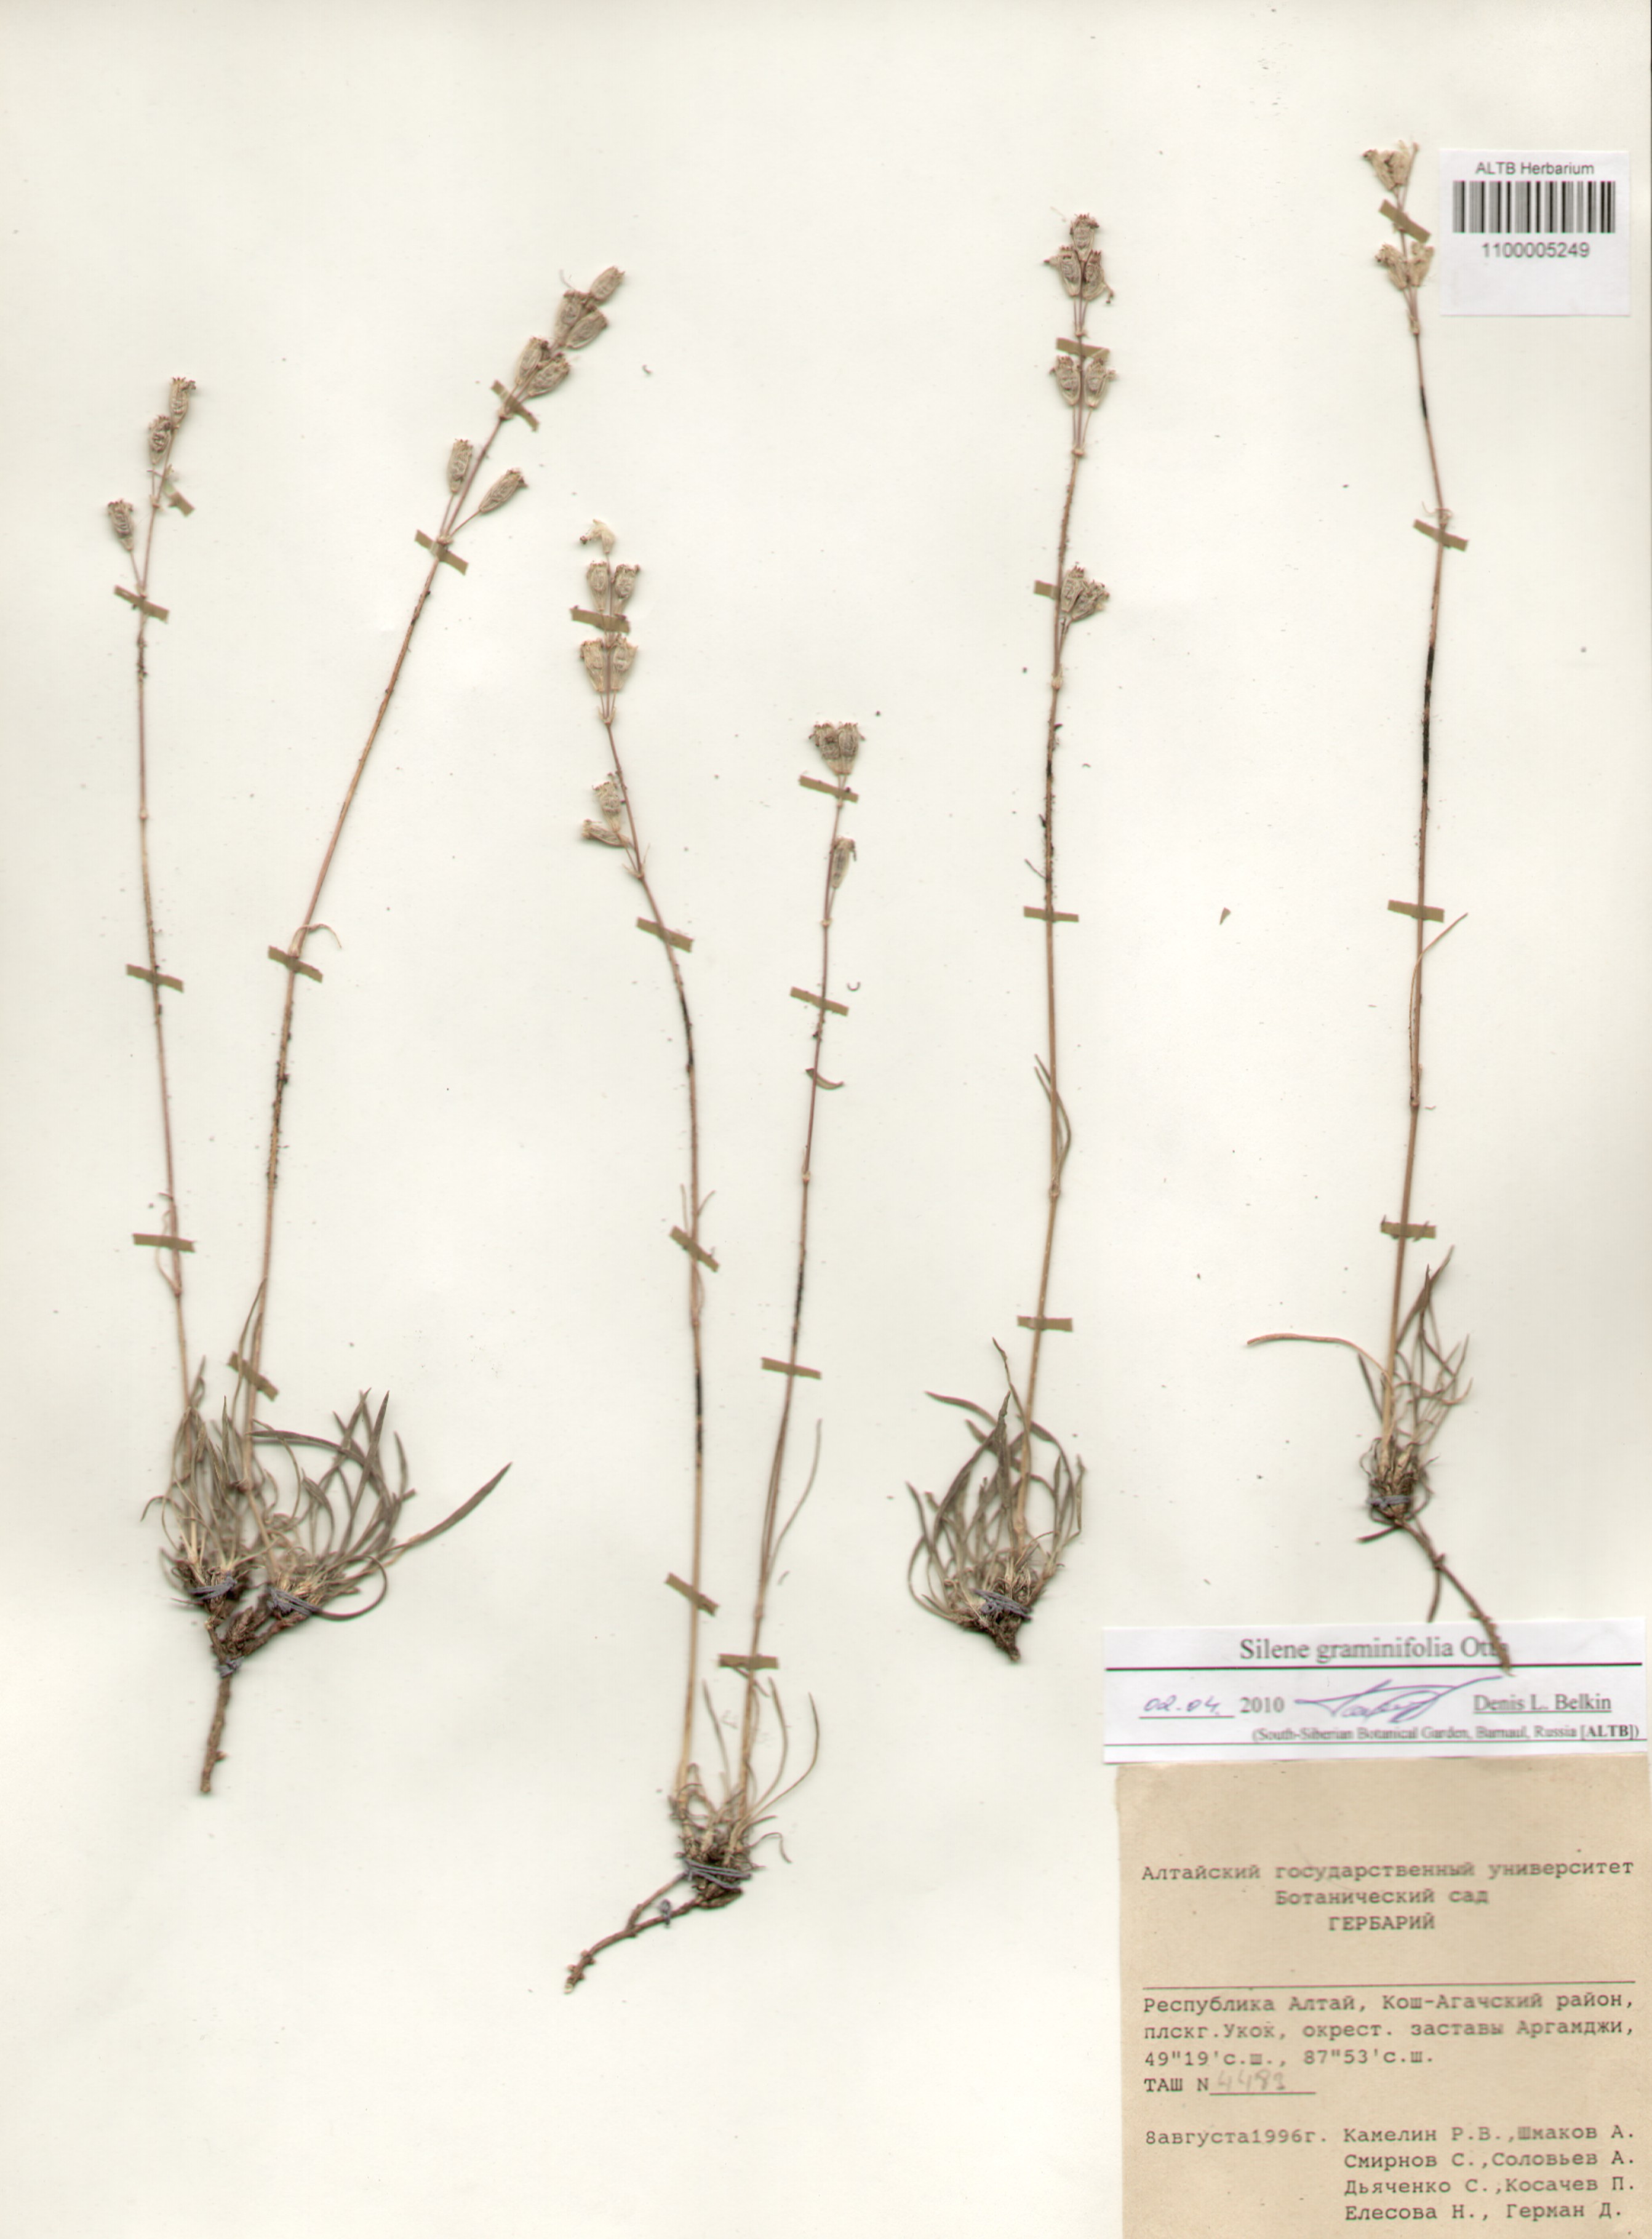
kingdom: Plantae
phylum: Tracheophyta
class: Magnoliopsida
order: Caryophyllales
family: Caryophyllaceae
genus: Silene
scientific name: Silene graminifolia
